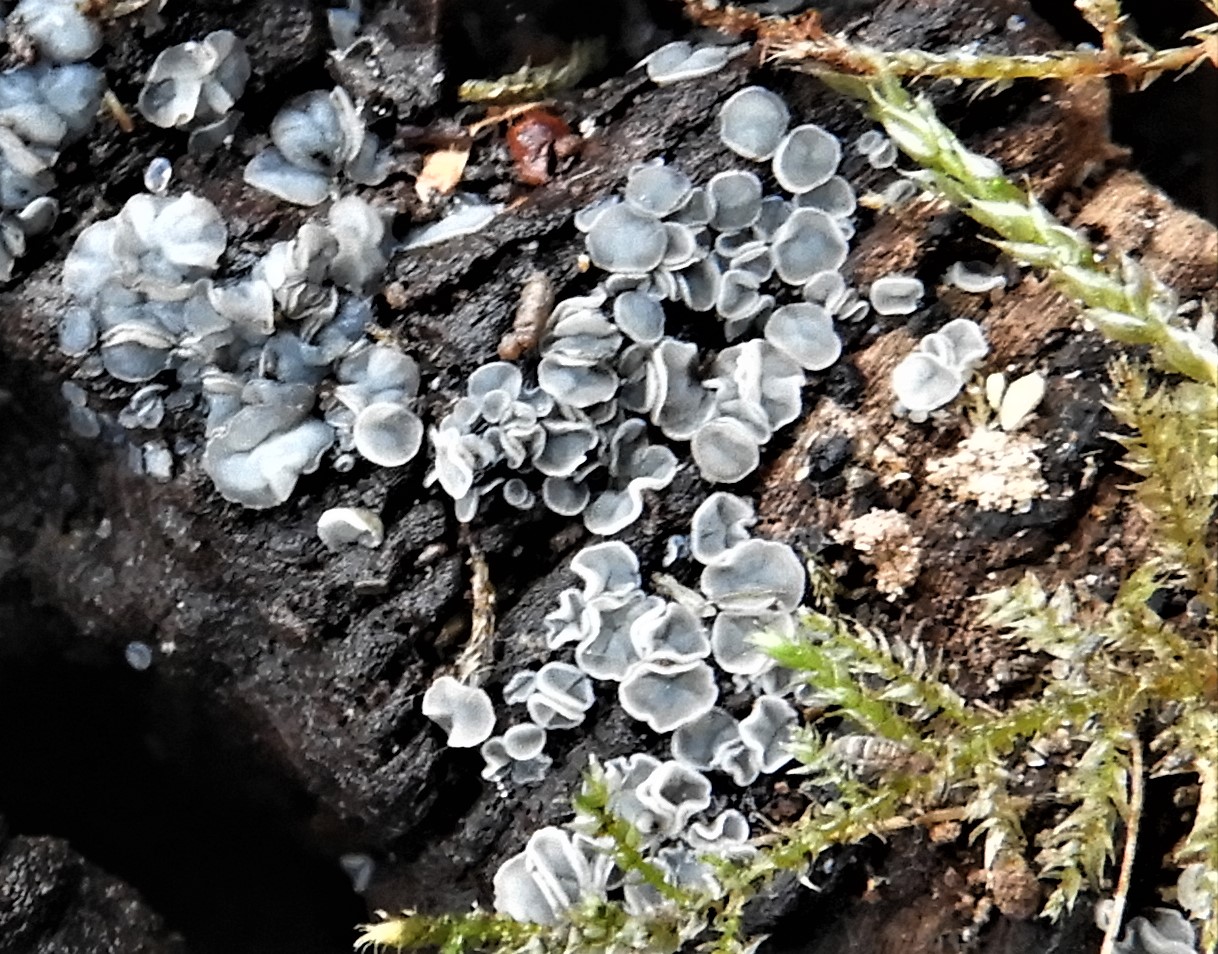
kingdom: Fungi
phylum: Ascomycota
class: Leotiomycetes
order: Helotiales
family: Mollisiaceae
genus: Mollisia
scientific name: Mollisia
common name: gråskive
